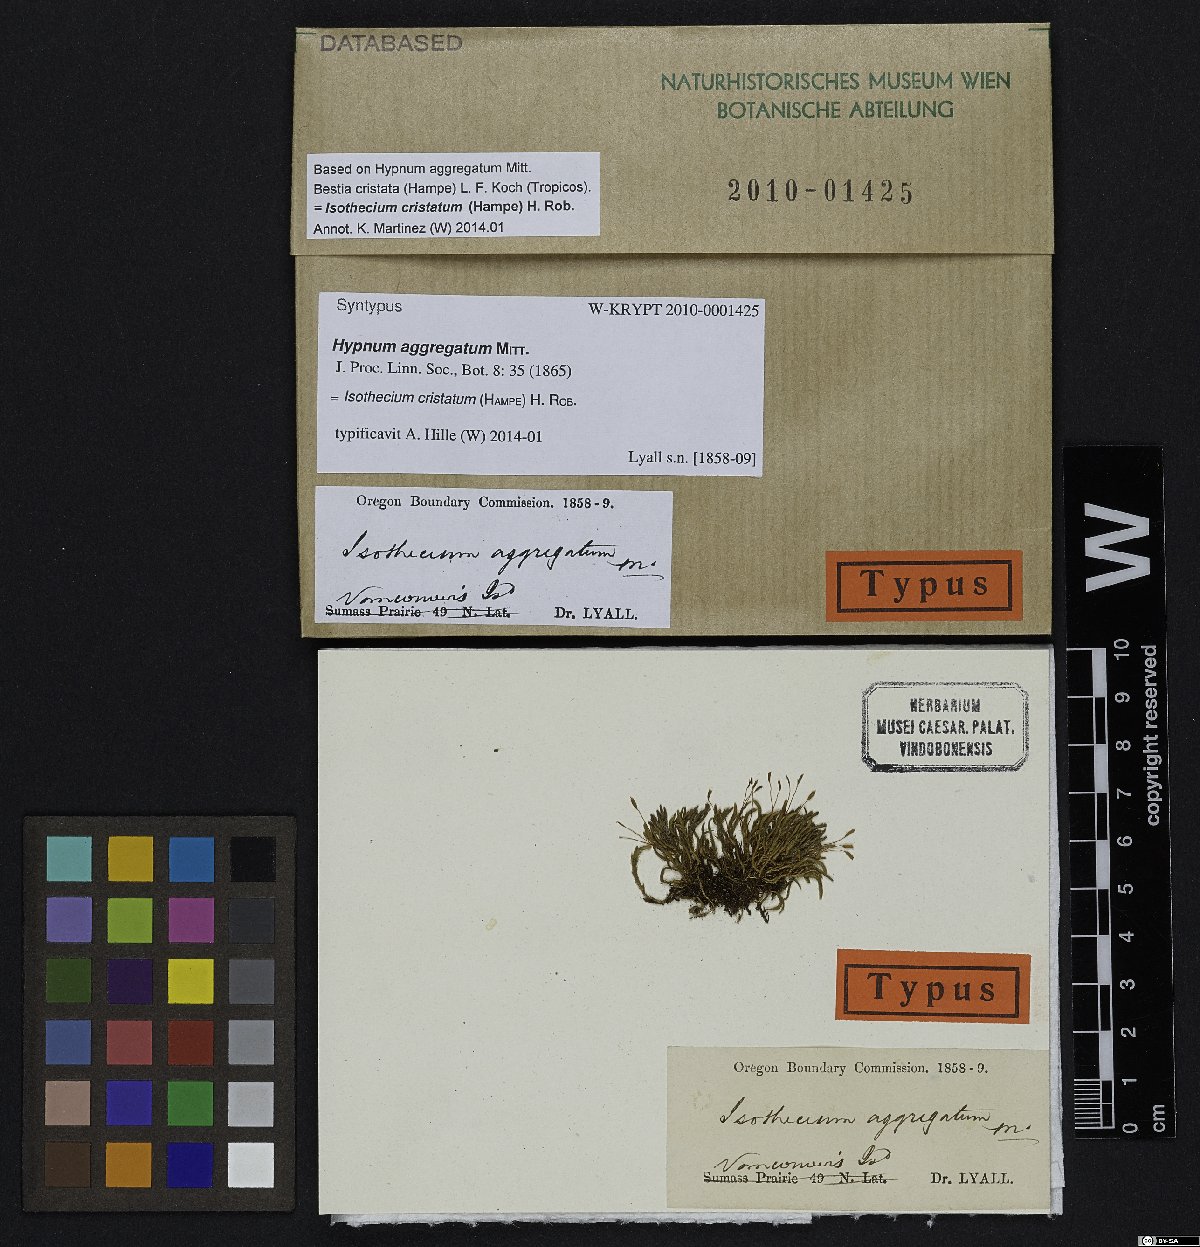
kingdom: Plantae
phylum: Bryophyta
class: Bryopsida
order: Hypnales
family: Lembophyllaceae
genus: Pseudisothecium
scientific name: Pseudisothecium cristatum
